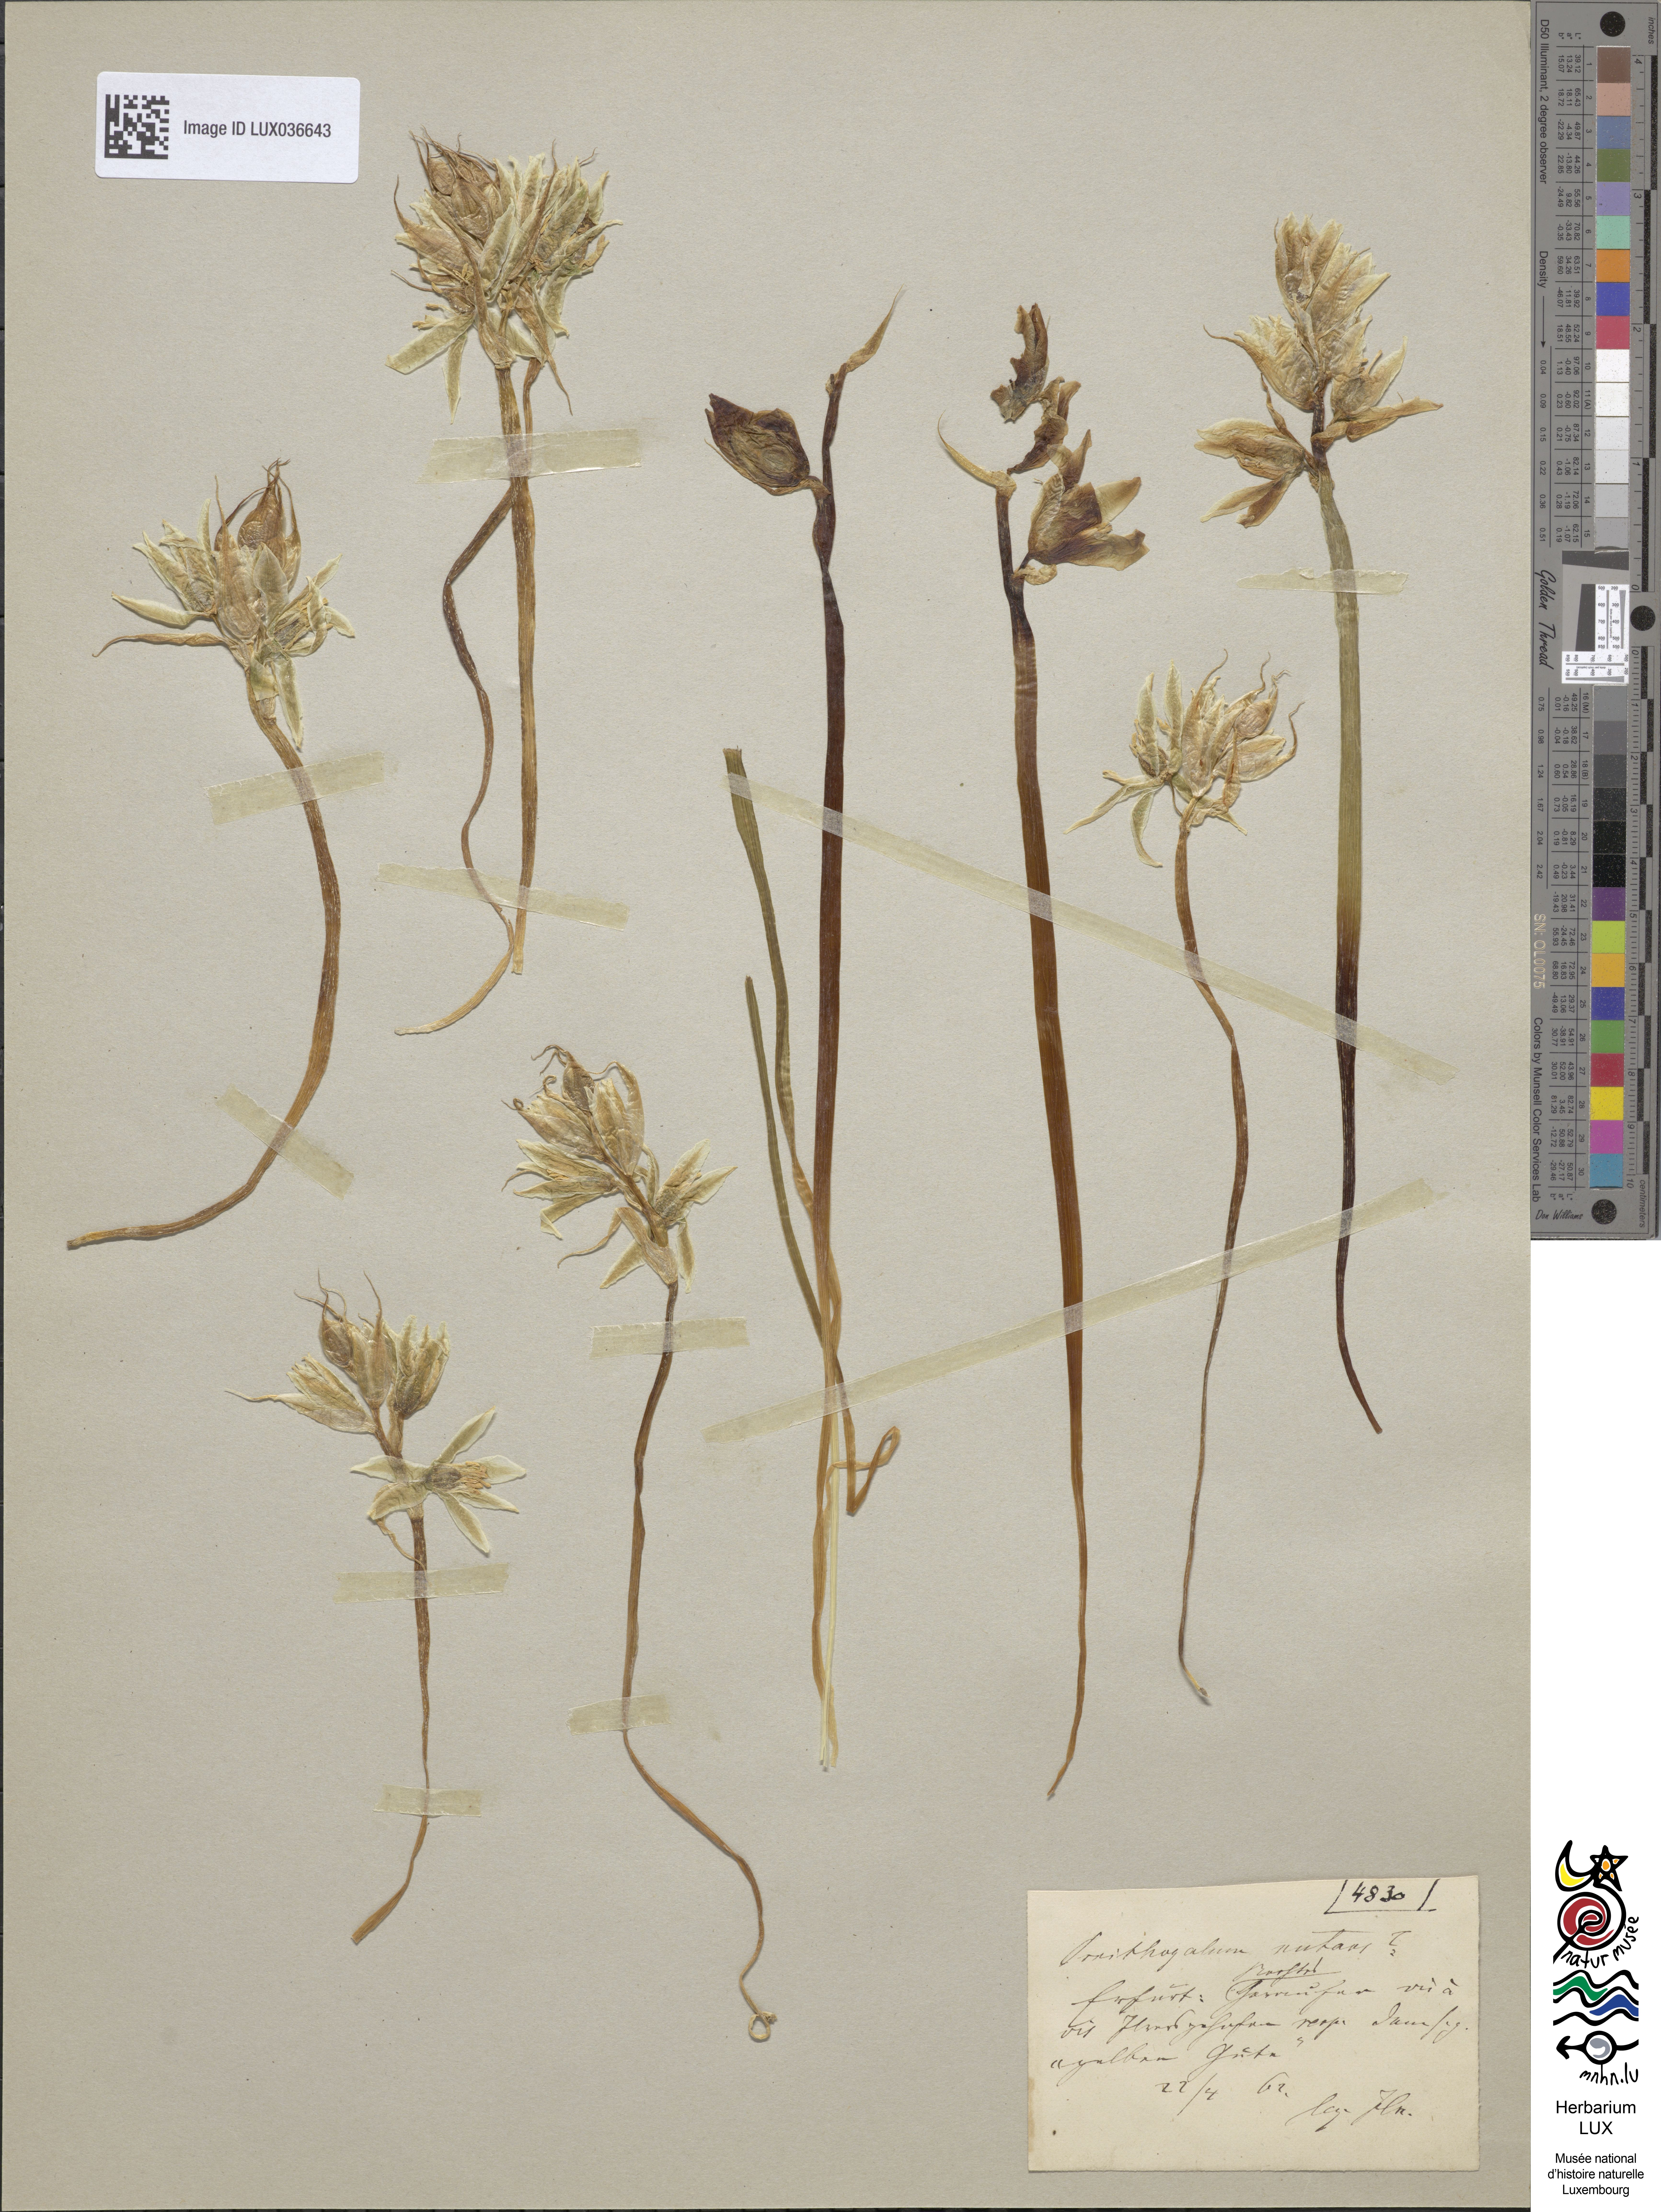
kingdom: Plantae
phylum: Tracheophyta
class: Liliopsida
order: Asparagales
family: Asparagaceae
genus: Ornithogalum
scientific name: Ornithogalum nutans
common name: Drooping star-of-bethlehem
